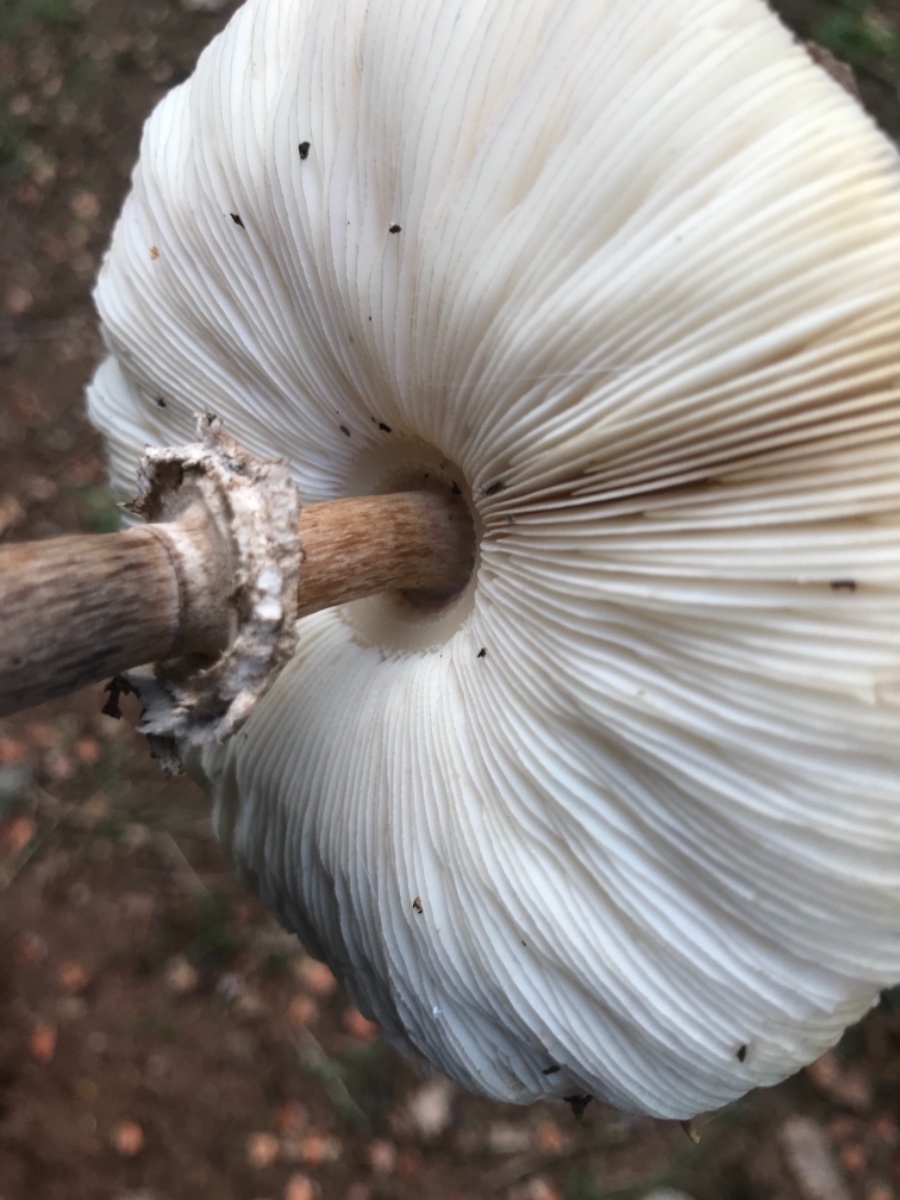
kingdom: Fungi
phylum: Basidiomycota
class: Agaricomycetes
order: Agaricales
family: Agaricaceae
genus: Chlorophyllum
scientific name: Chlorophyllum olivieri
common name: almindelig rabarberhat
